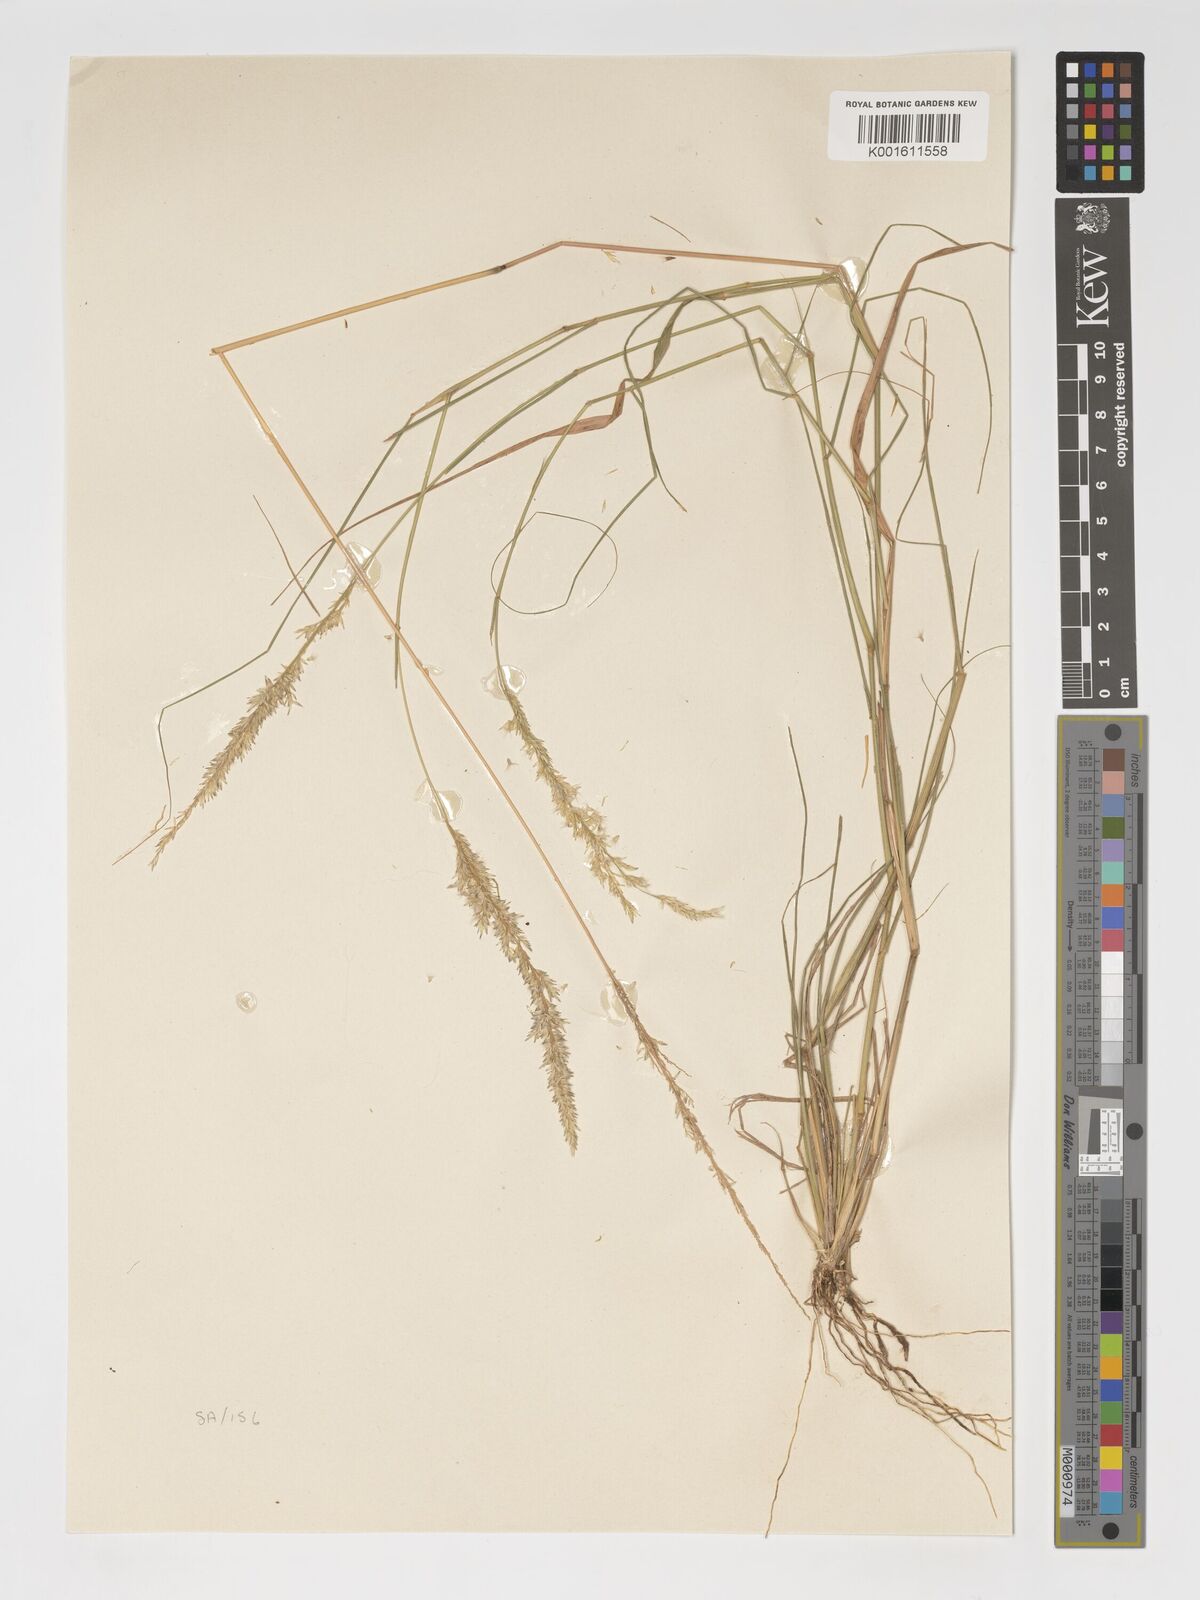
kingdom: Plantae
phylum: Tracheophyta
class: Liliopsida
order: Poales
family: Poaceae
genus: Enneapogon
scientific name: Enneapogon cenchroides
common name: Soft feather pappusgrass
